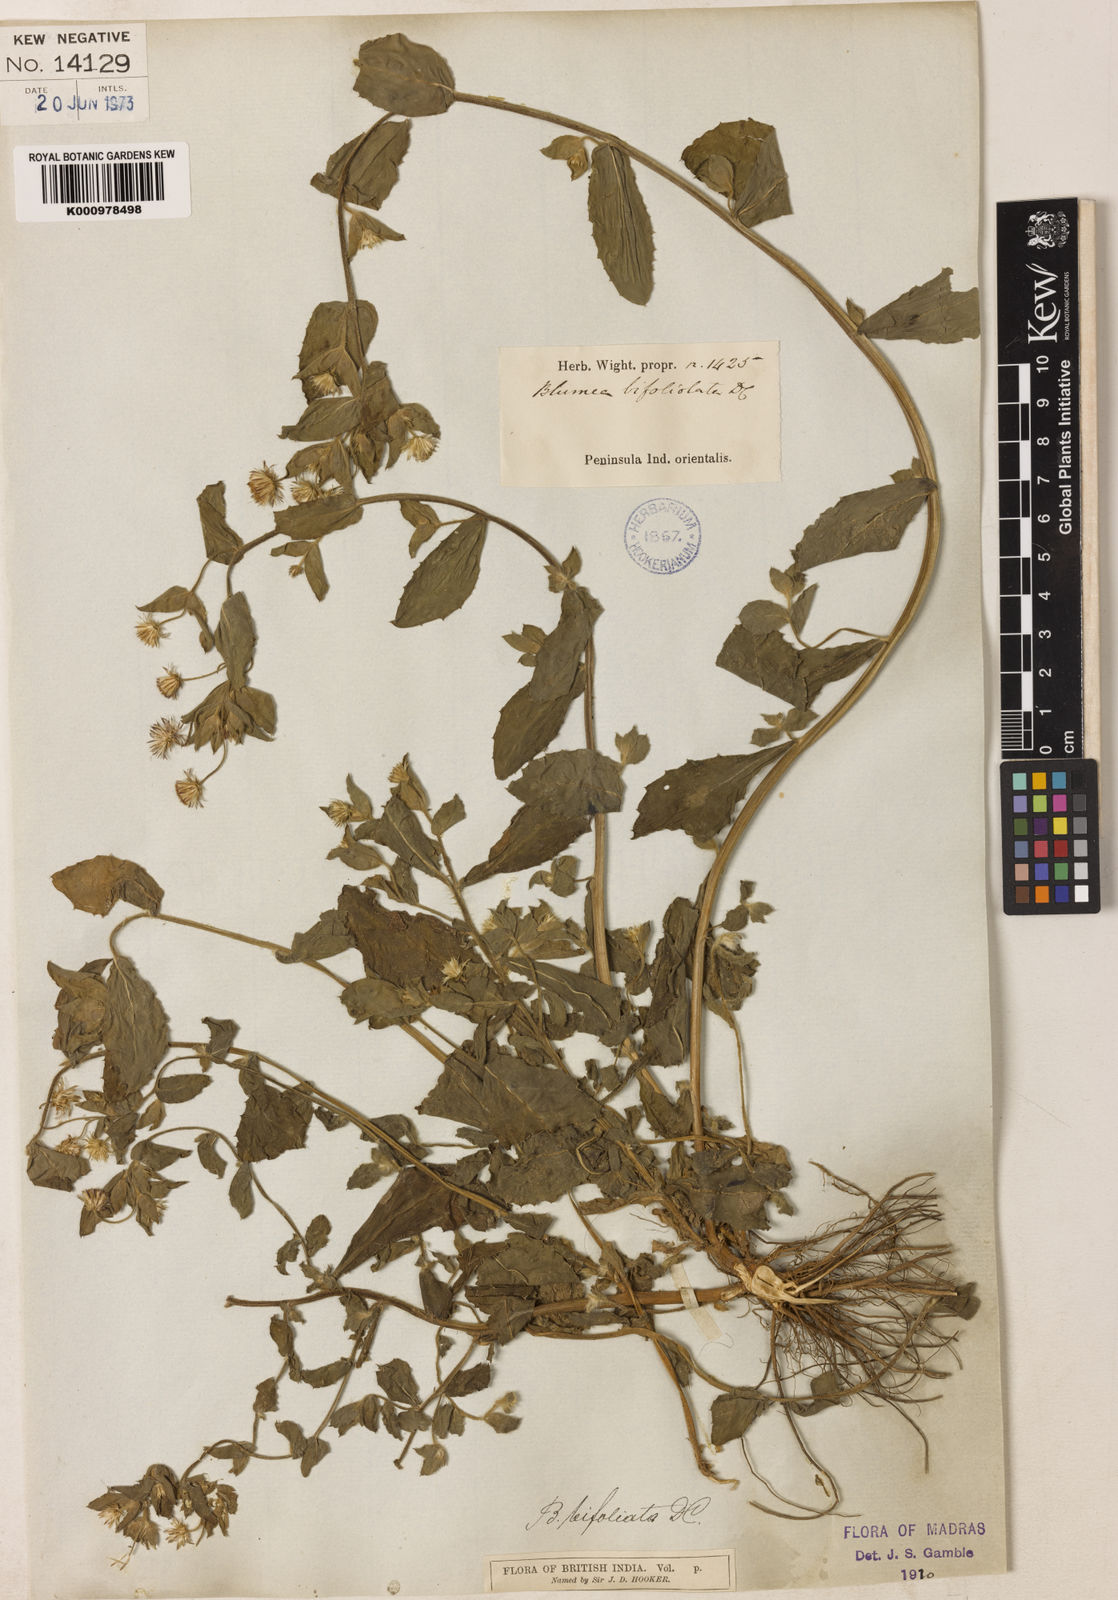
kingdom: Plantae
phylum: Tracheophyta
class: Magnoliopsida
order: Asterales
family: Asteraceae
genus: Blumea
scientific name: Blumea bifoliata
